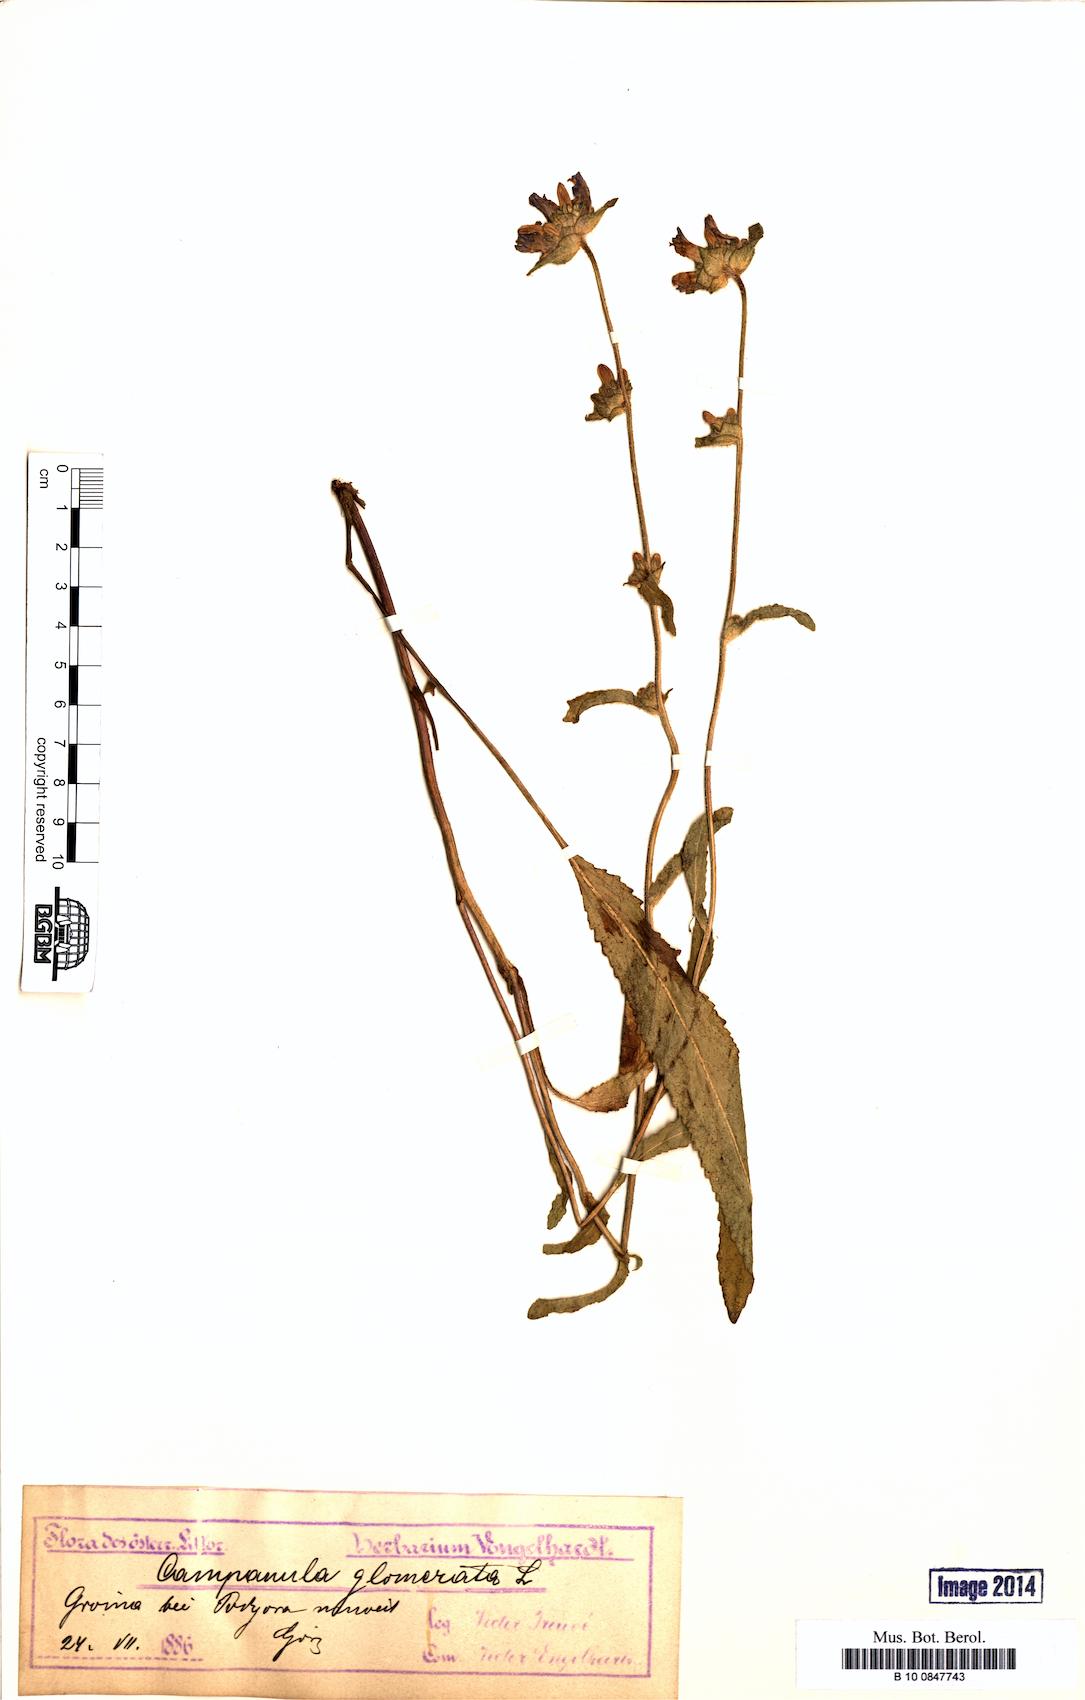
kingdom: Plantae
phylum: Tracheophyta
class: Magnoliopsida
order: Asterales
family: Campanulaceae
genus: Campanula
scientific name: Campanula glomerata
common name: Clustered bellflower
